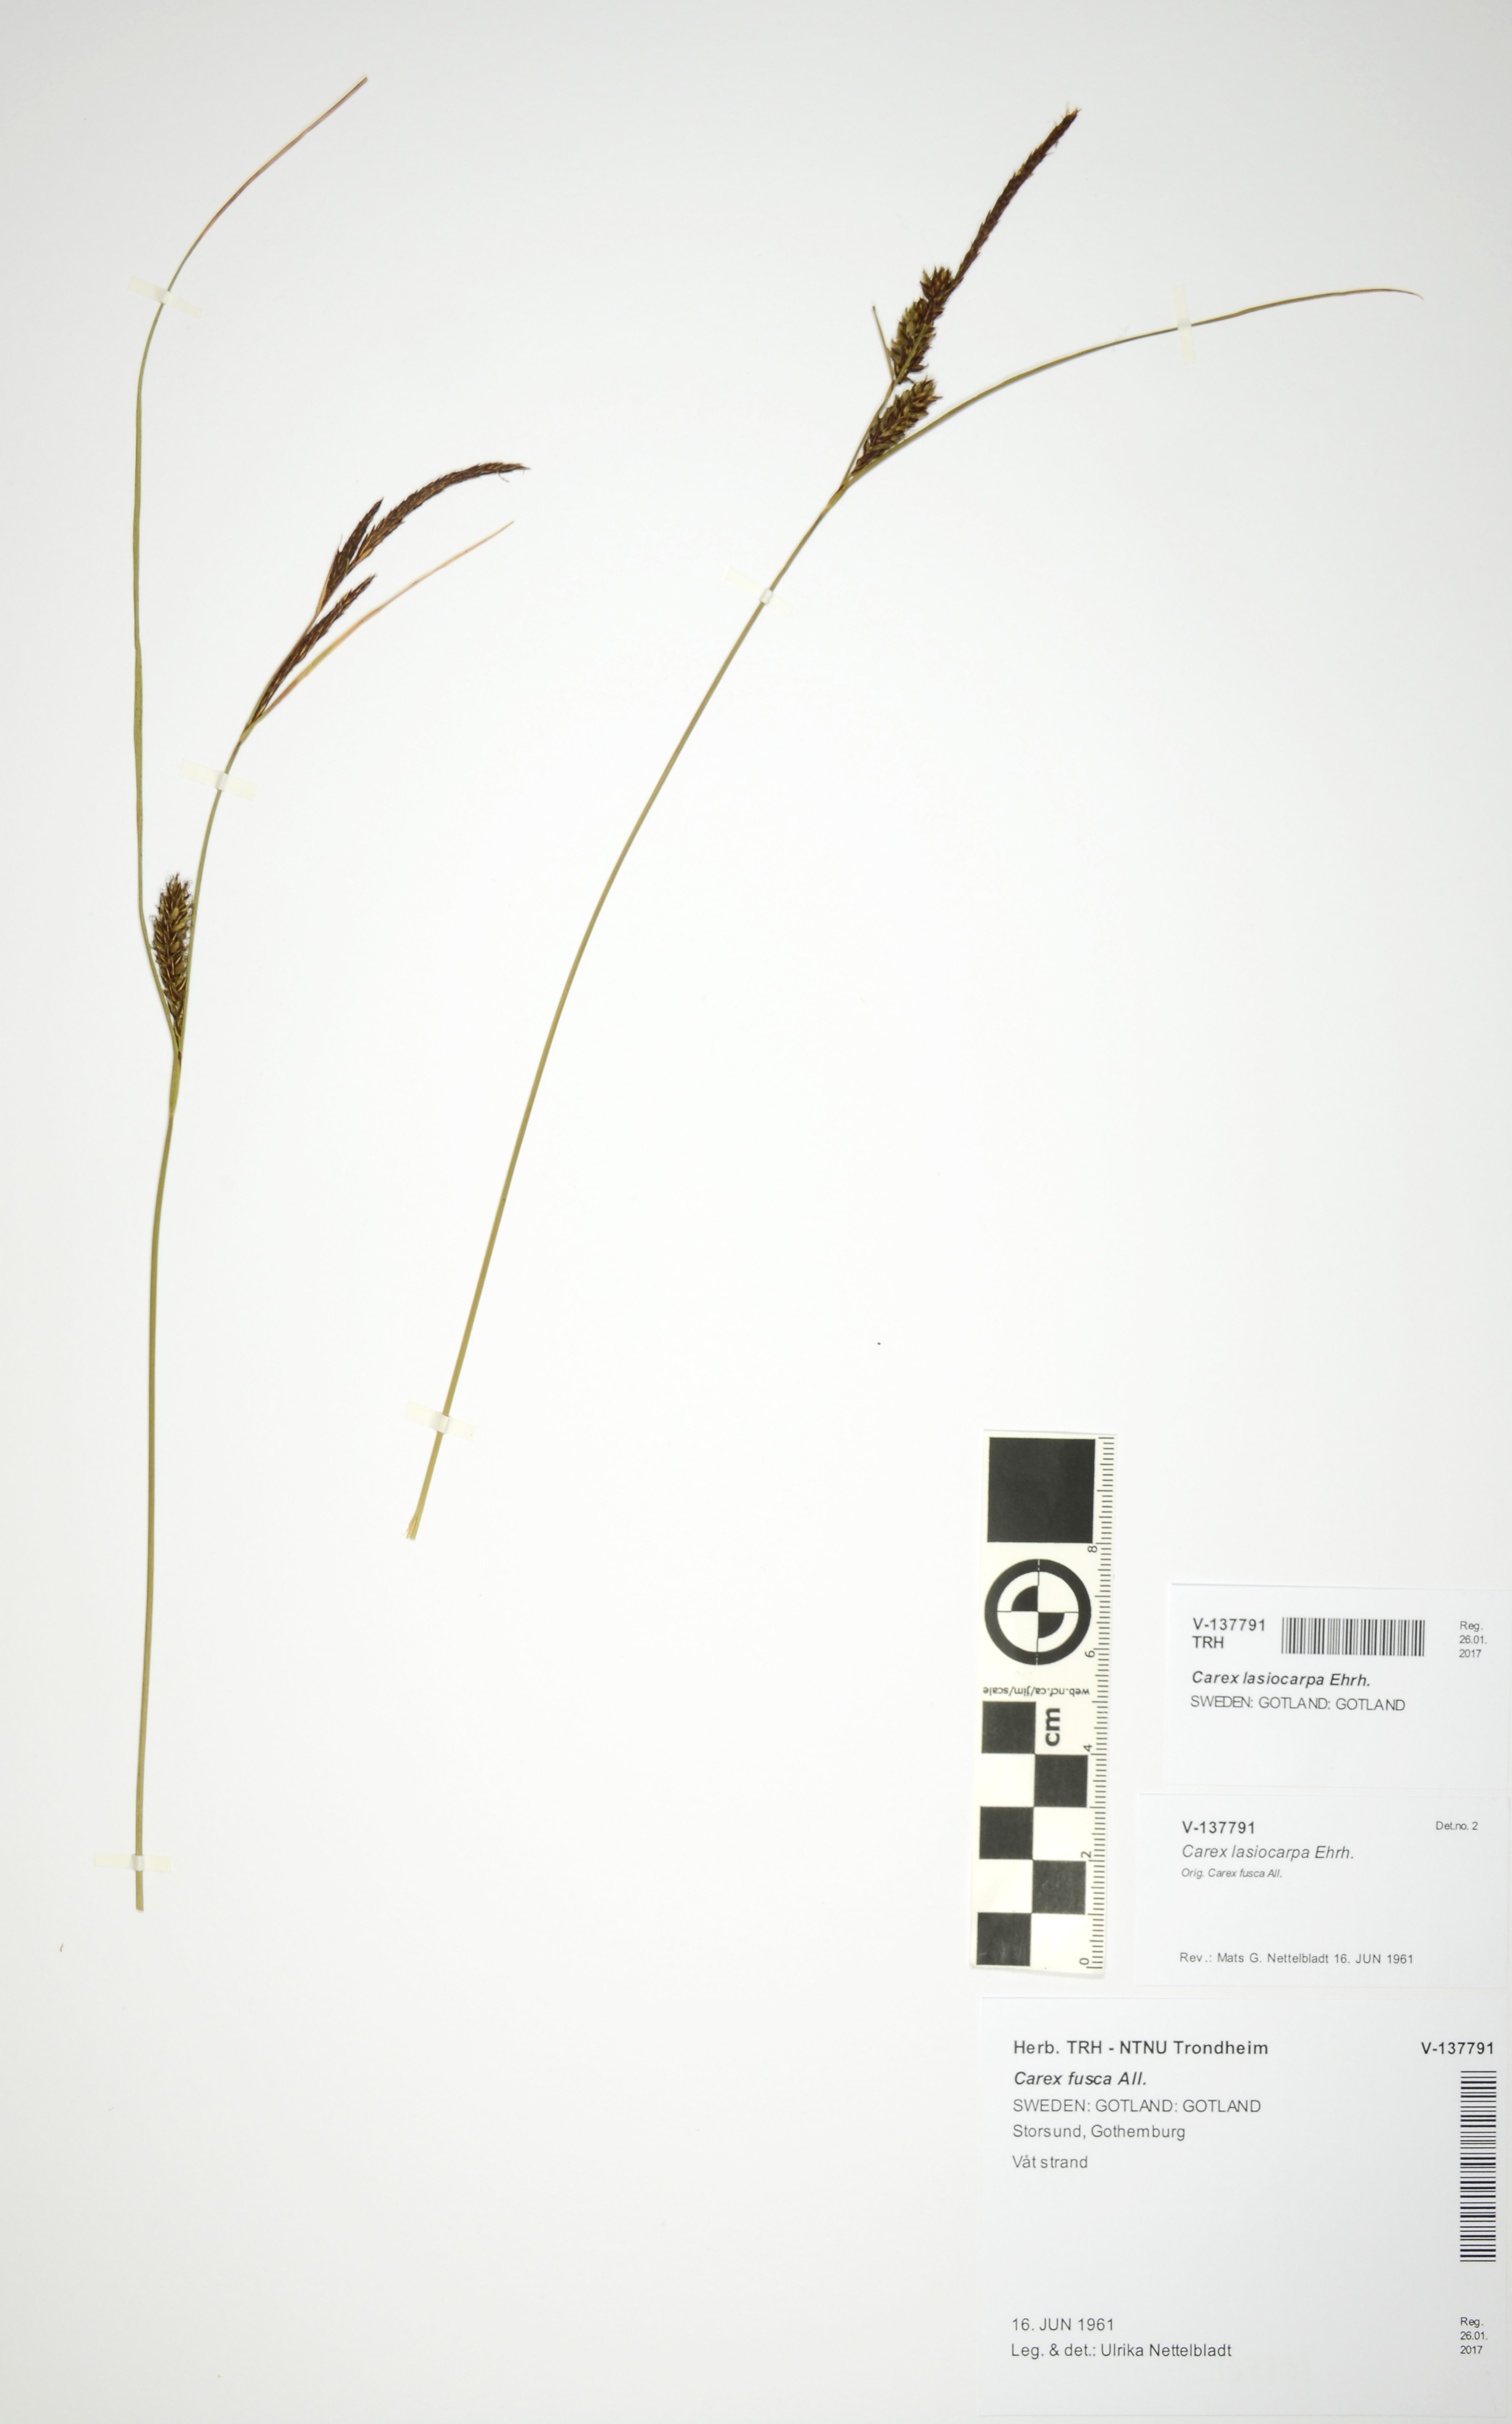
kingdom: Plantae
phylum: Tracheophyta
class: Liliopsida
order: Poales
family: Cyperaceae
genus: Carex
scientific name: Carex lasiocarpa
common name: Slender sedge
